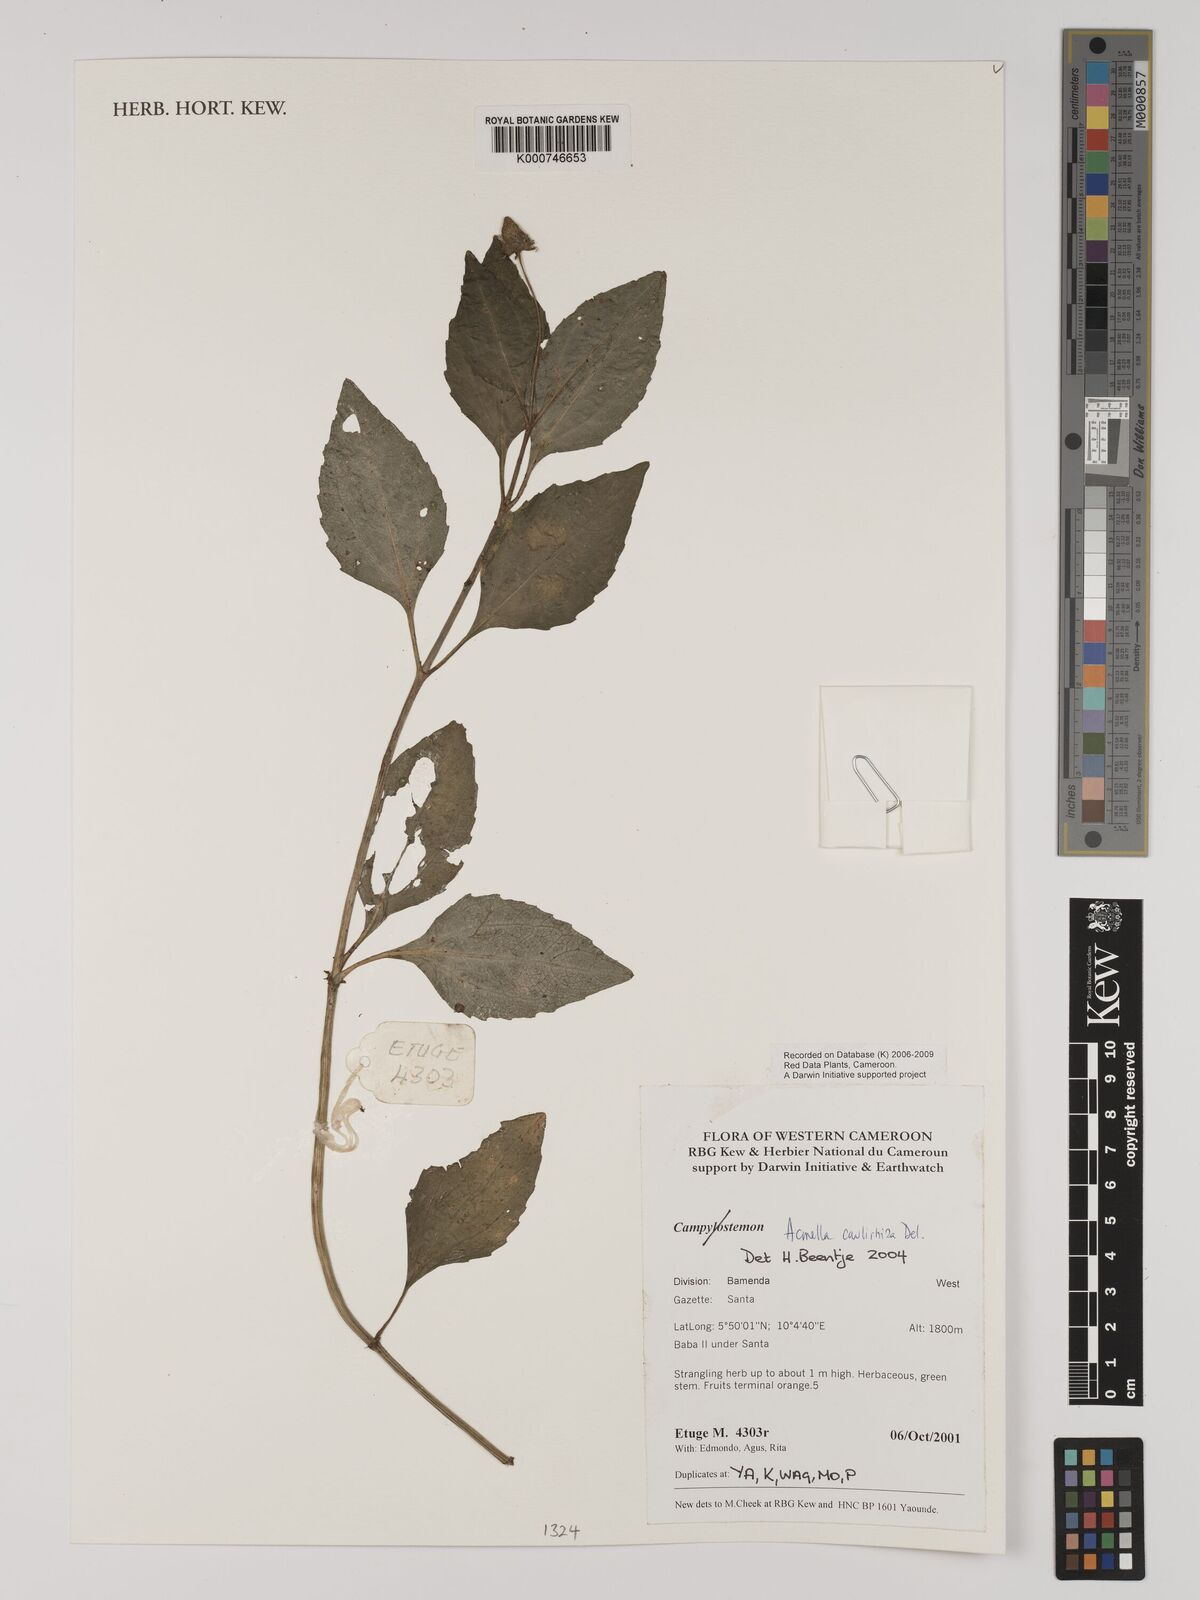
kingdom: Plantae
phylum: Tracheophyta
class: Magnoliopsida
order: Asterales
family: Asteraceae
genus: Acmella
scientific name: Acmella caulirhiza
